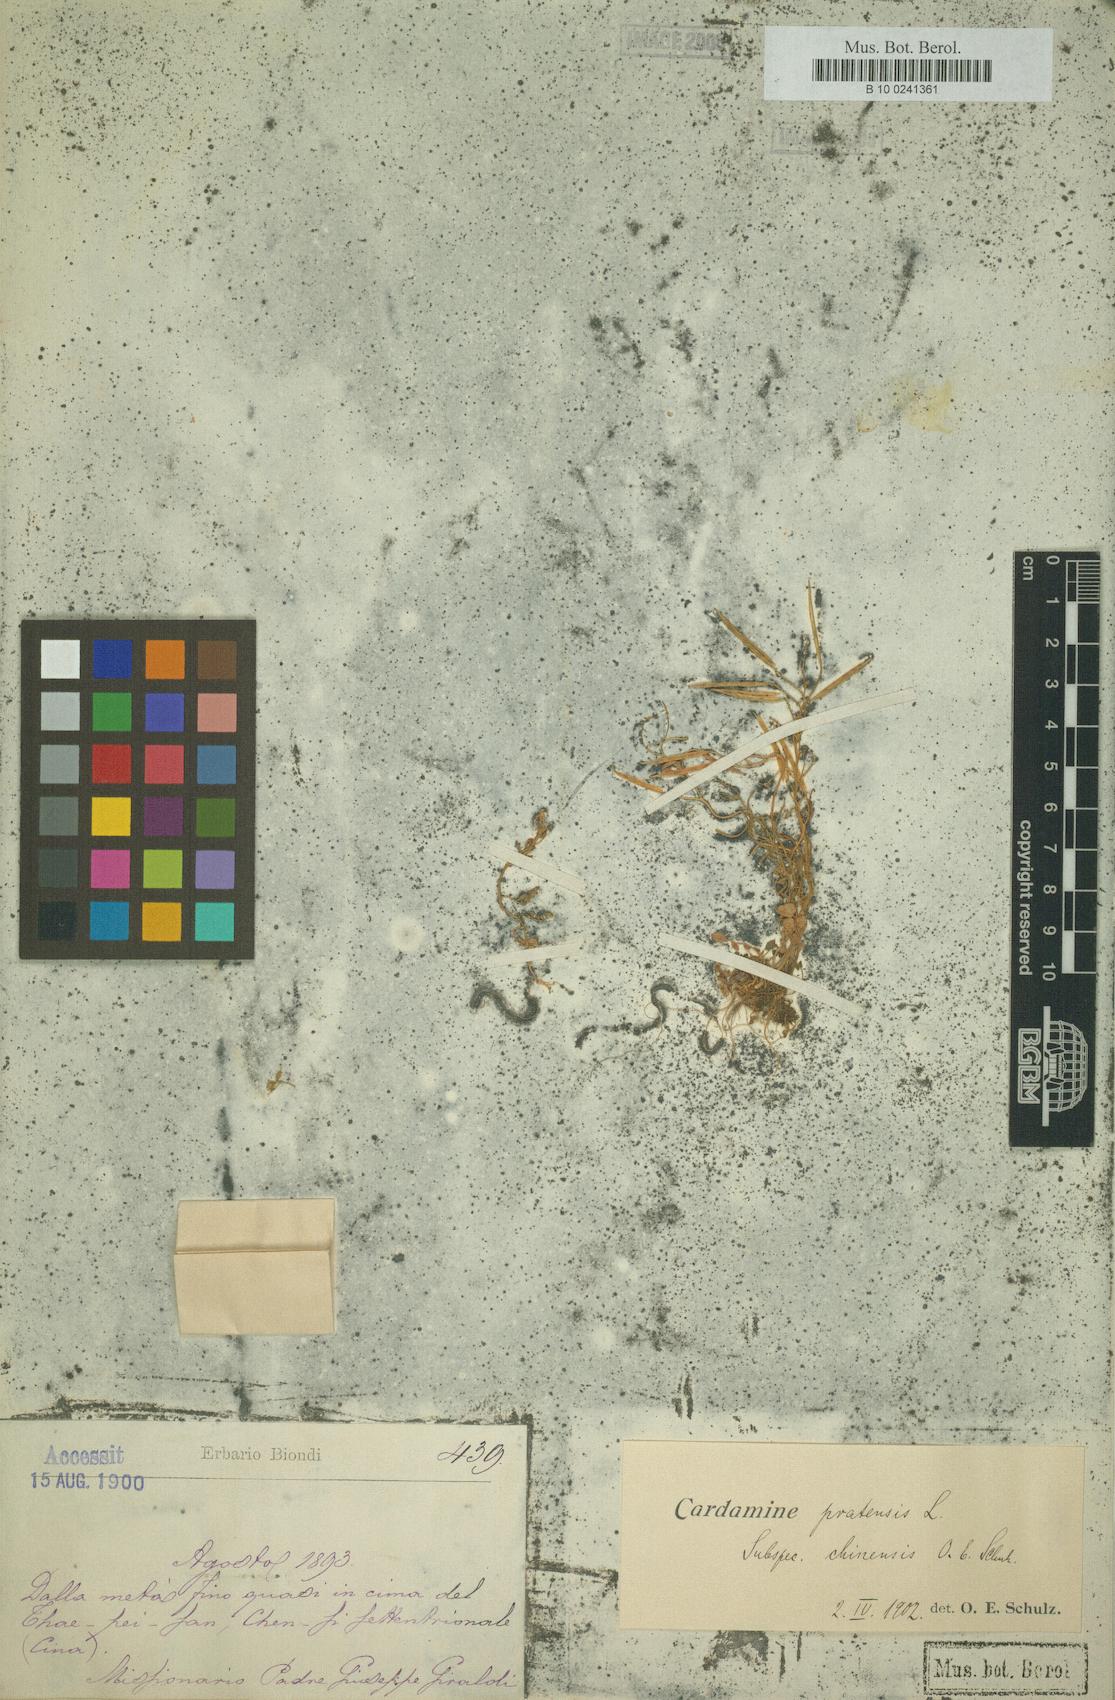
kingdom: Plantae
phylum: Tracheophyta
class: Magnoliopsida
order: Brassicales
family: Brassicaceae
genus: Cardamine
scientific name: Cardamine stenoloba
